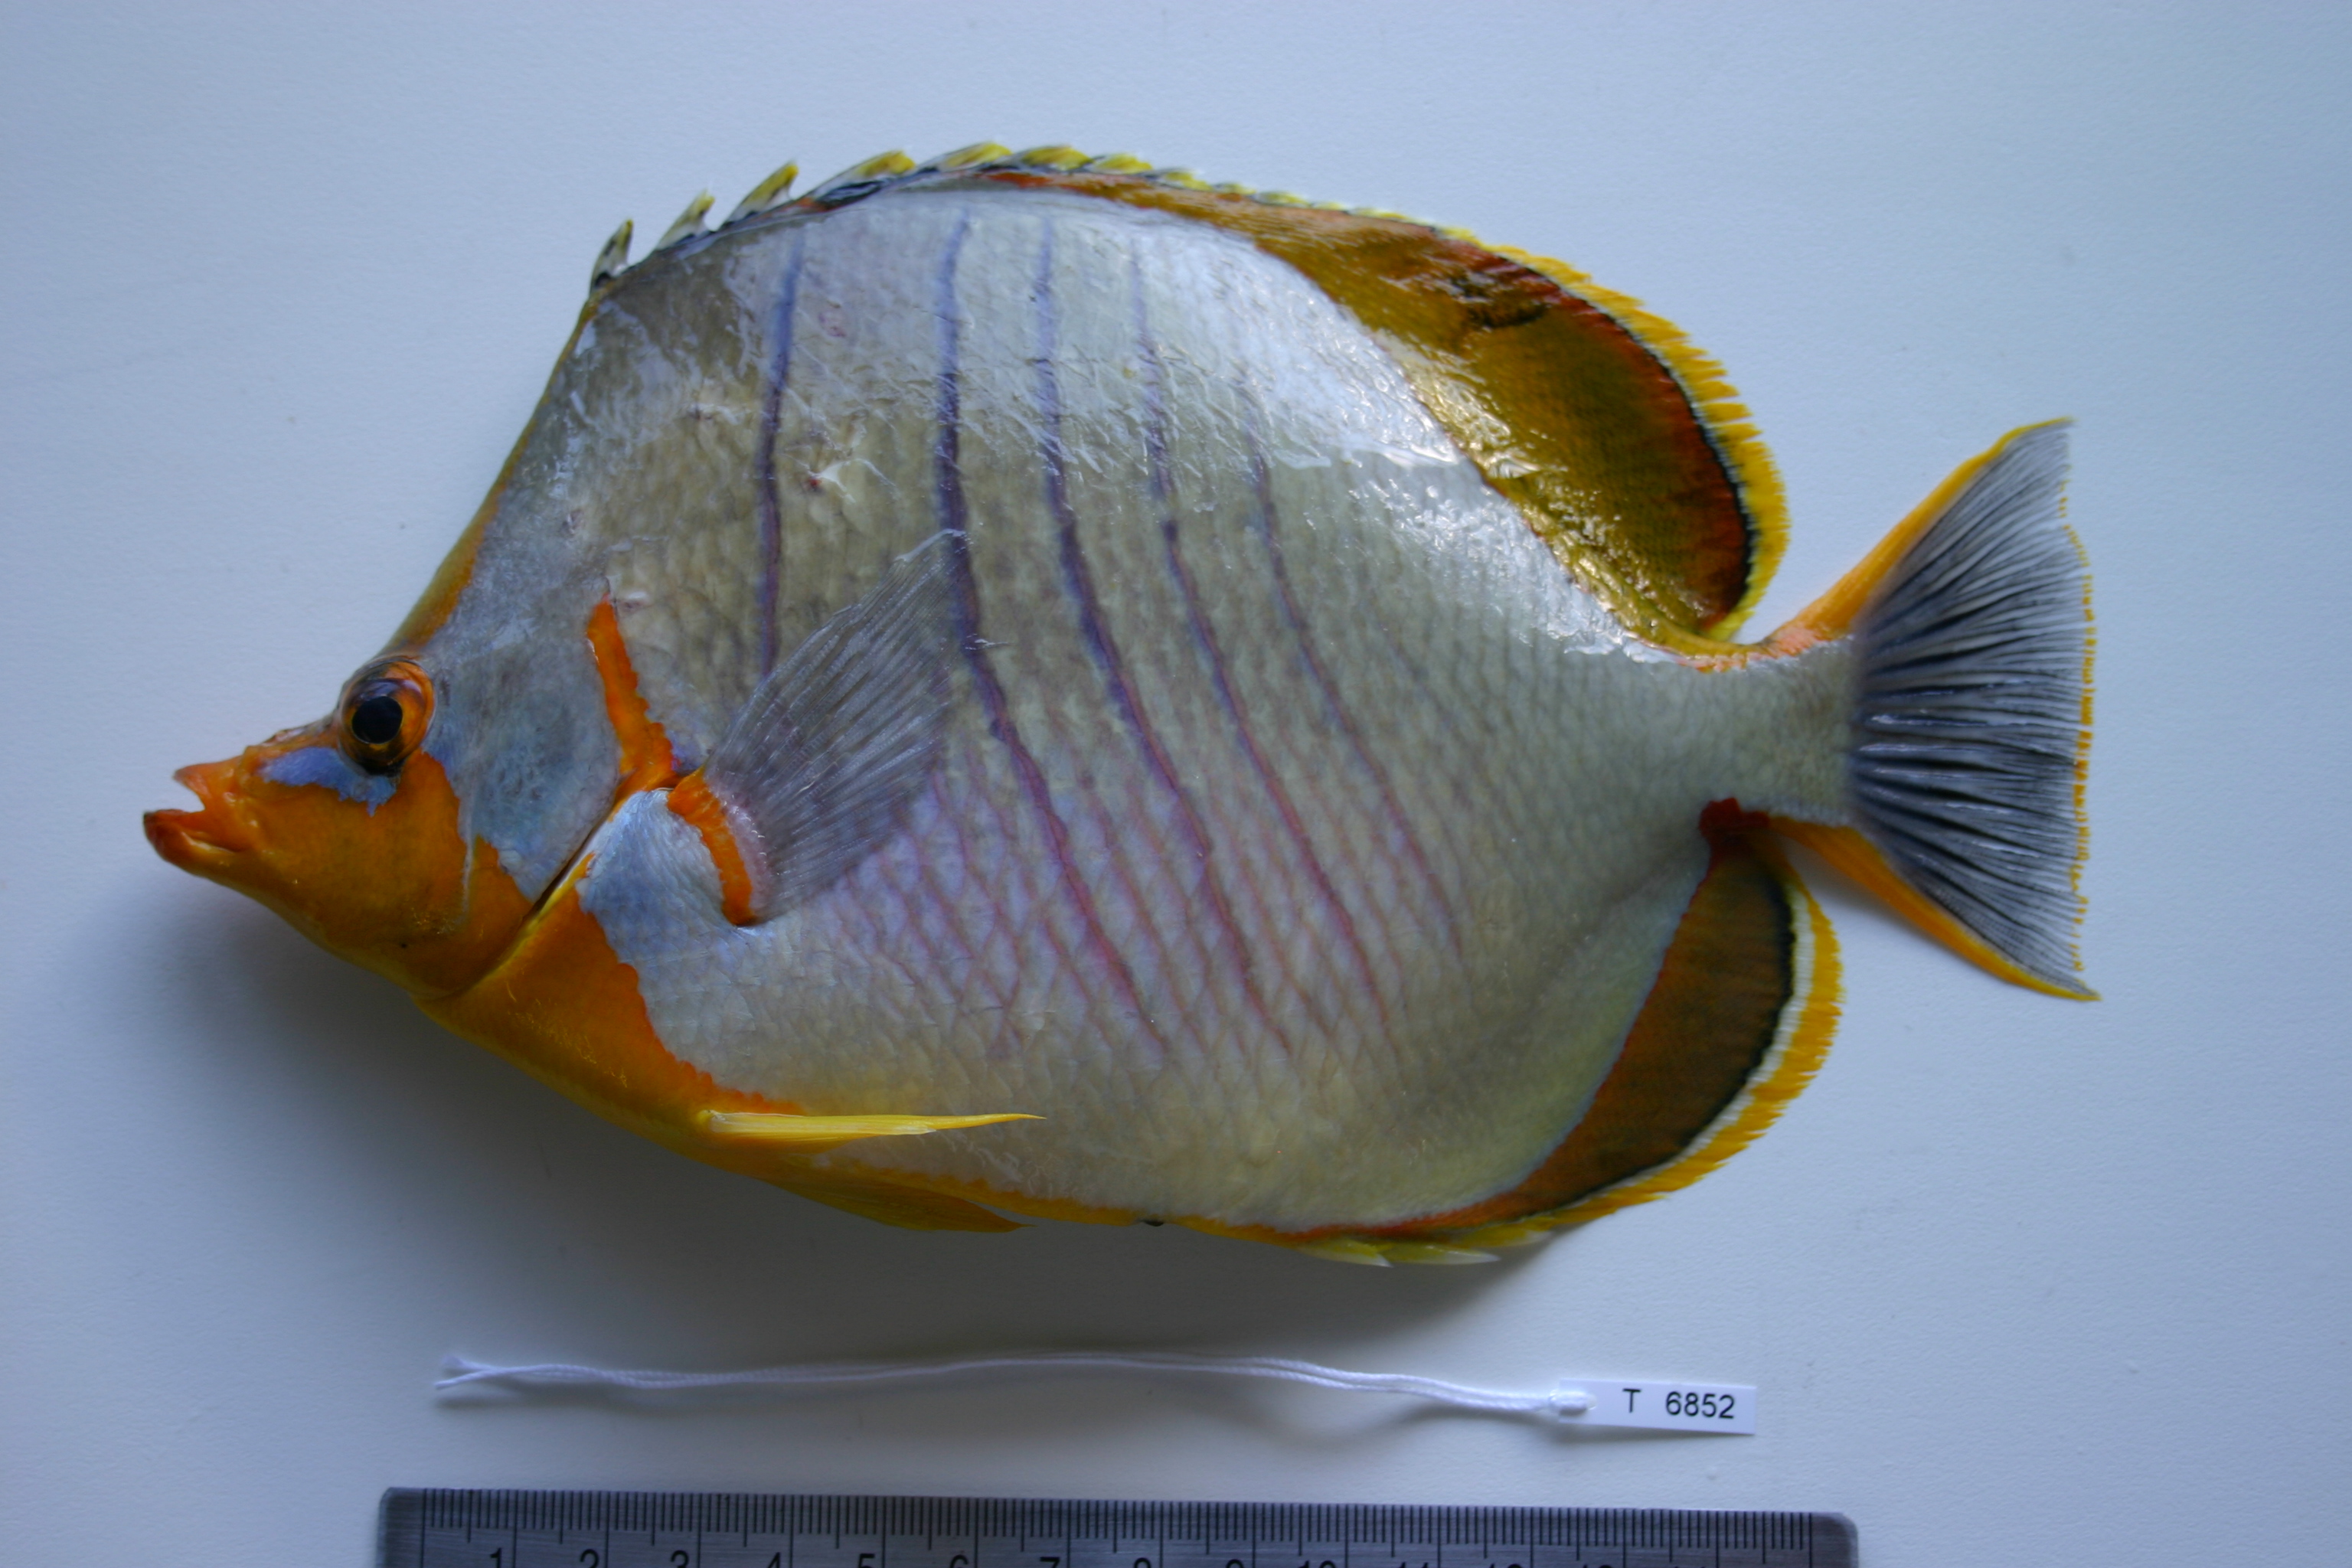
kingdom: Animalia
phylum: Chordata
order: Perciformes
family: Chaetodontidae
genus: Chaetodon
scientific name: Chaetodon xanthocephalus
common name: Yellowhead butterflyfish
